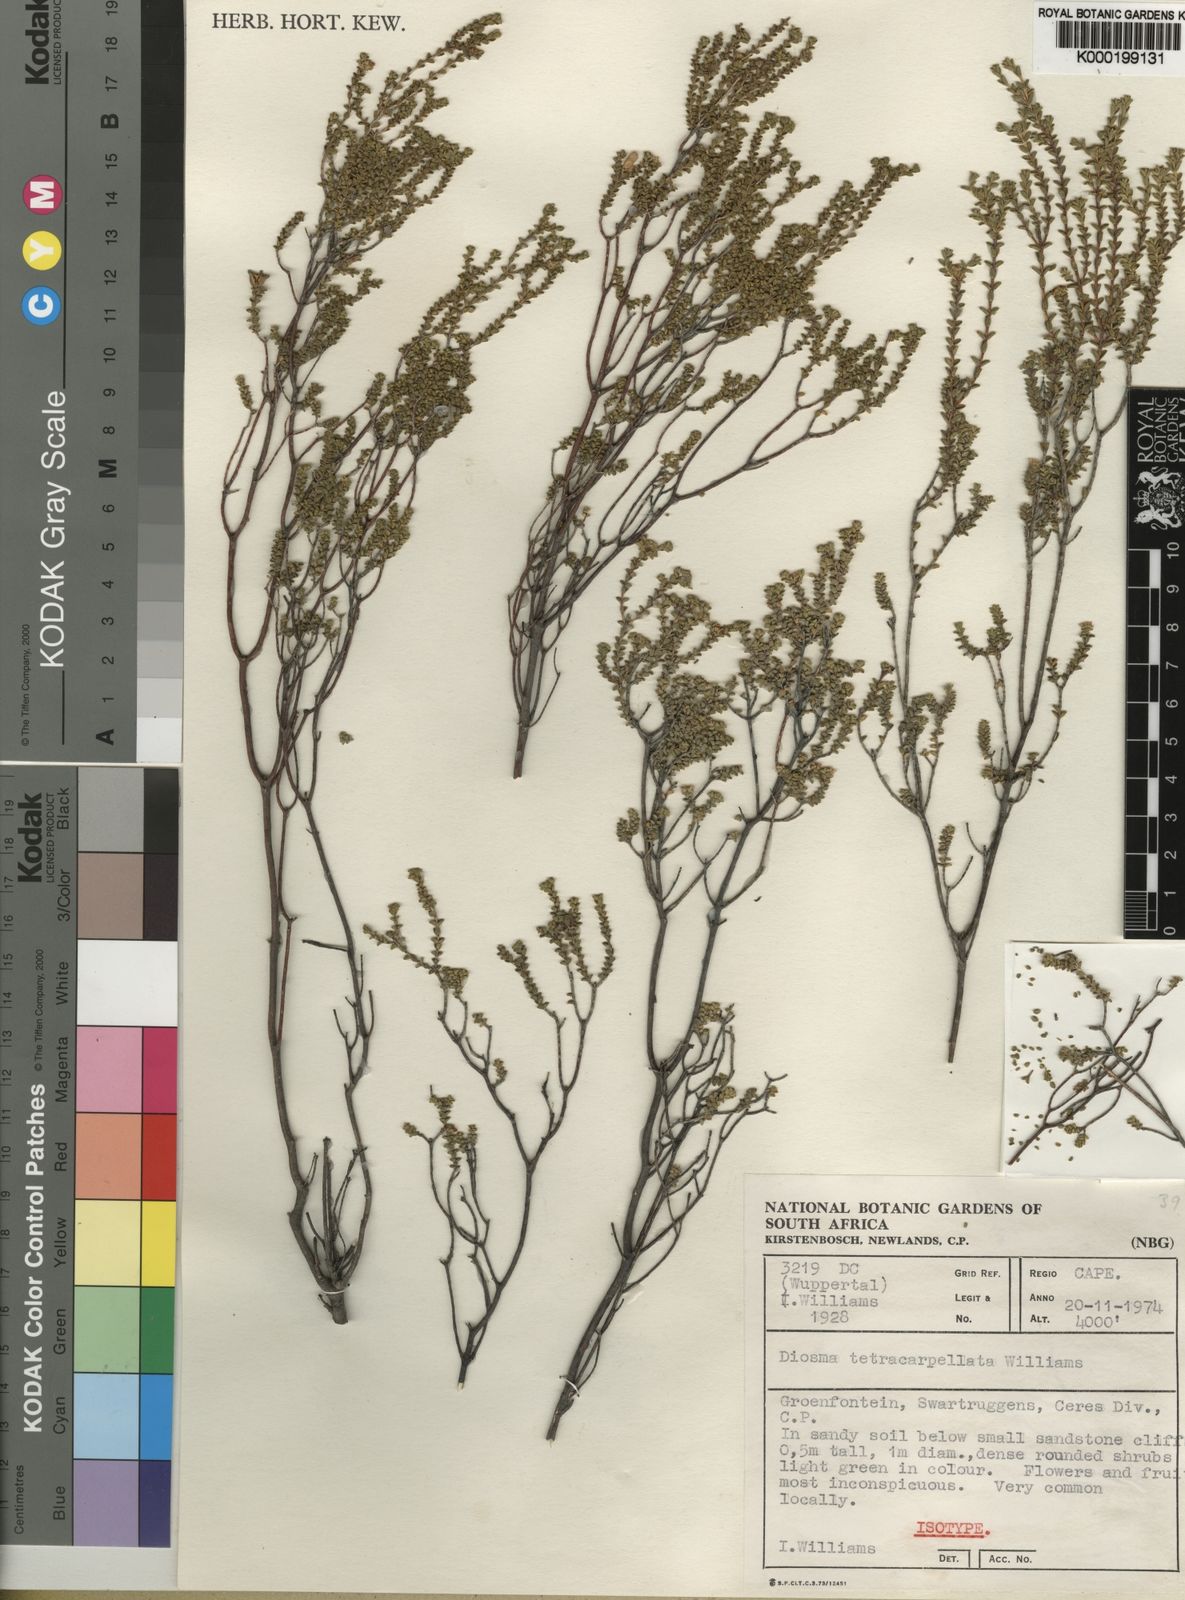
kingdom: Plantae
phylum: Tracheophyta
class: Magnoliopsida
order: Sapindales
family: Rutaceae
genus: Diosma
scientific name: Diosma
